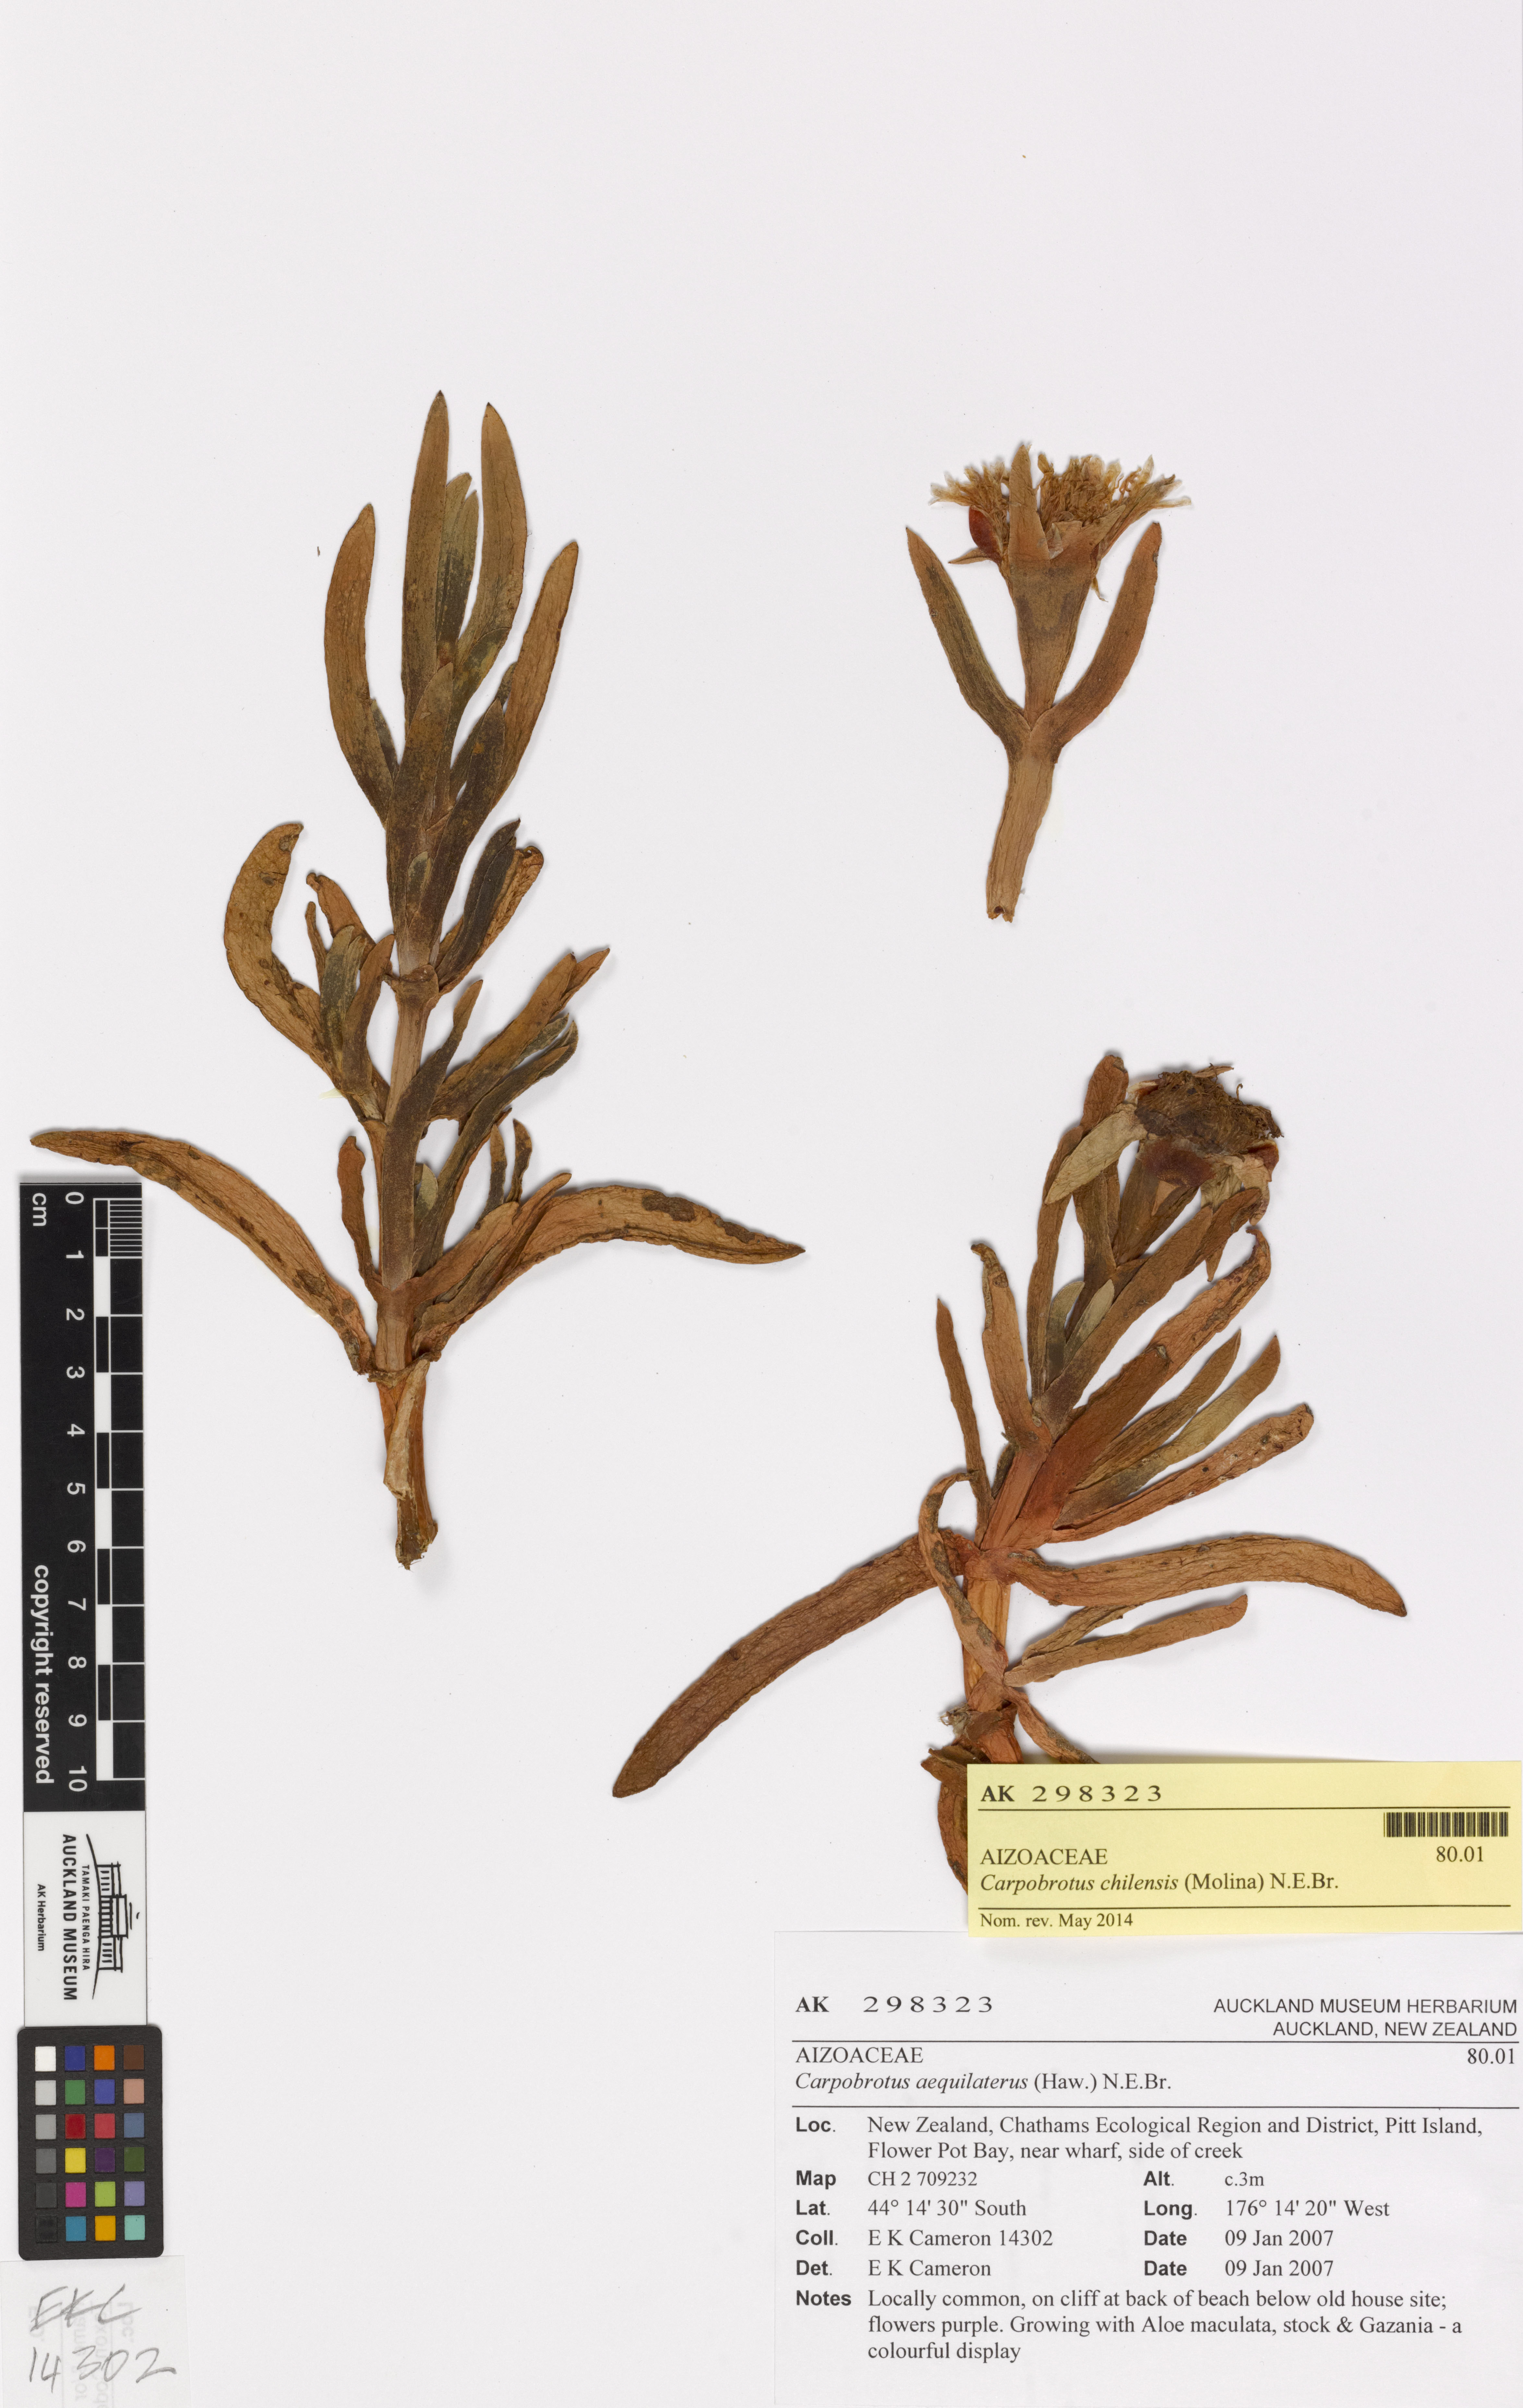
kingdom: Plantae
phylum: Tracheophyta
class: Magnoliopsida
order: Caryophyllales
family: Aizoaceae
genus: Carpobrotus
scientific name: Carpobrotus chilensis
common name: Sea fig
